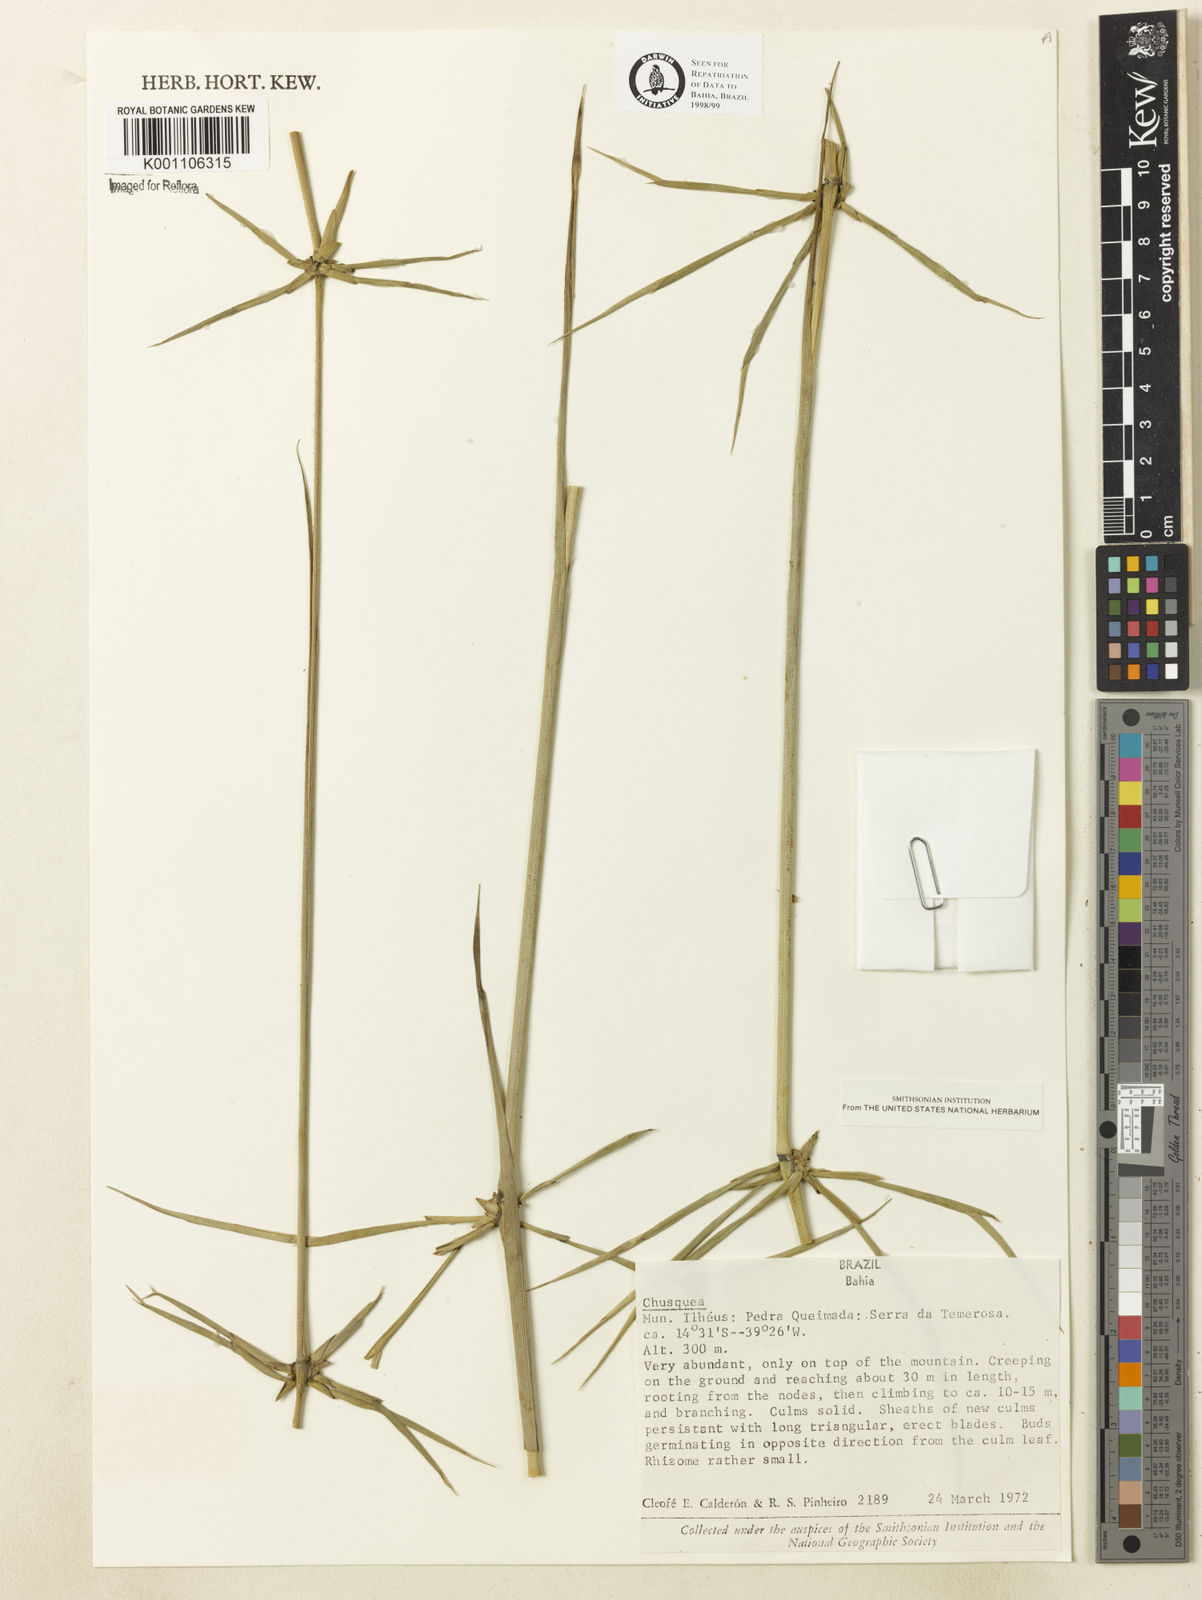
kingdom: Plantae
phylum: Tracheophyta
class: Liliopsida
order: Poales
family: Poaceae
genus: Chusquea
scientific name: Chusquea
